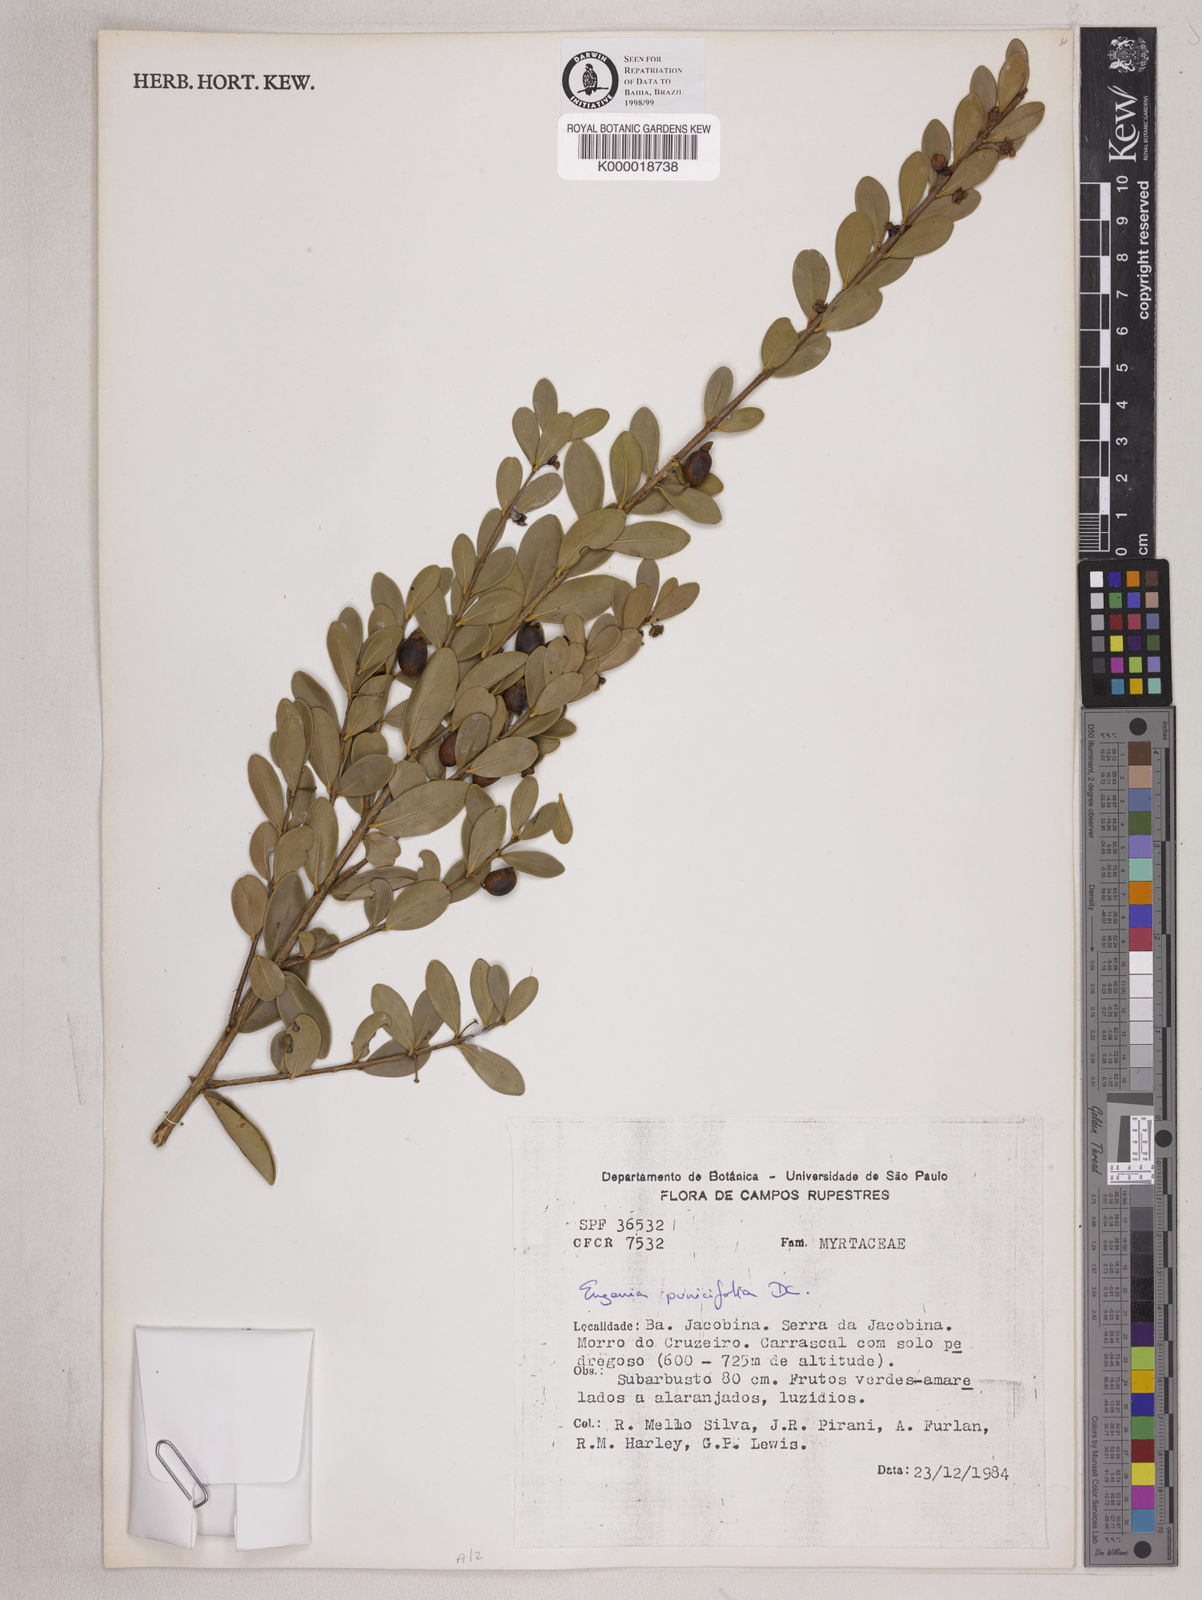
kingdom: Plantae
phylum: Tracheophyta
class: Magnoliopsida
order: Myrtales
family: Myrtaceae
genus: Eugenia
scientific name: Eugenia punicifolia
